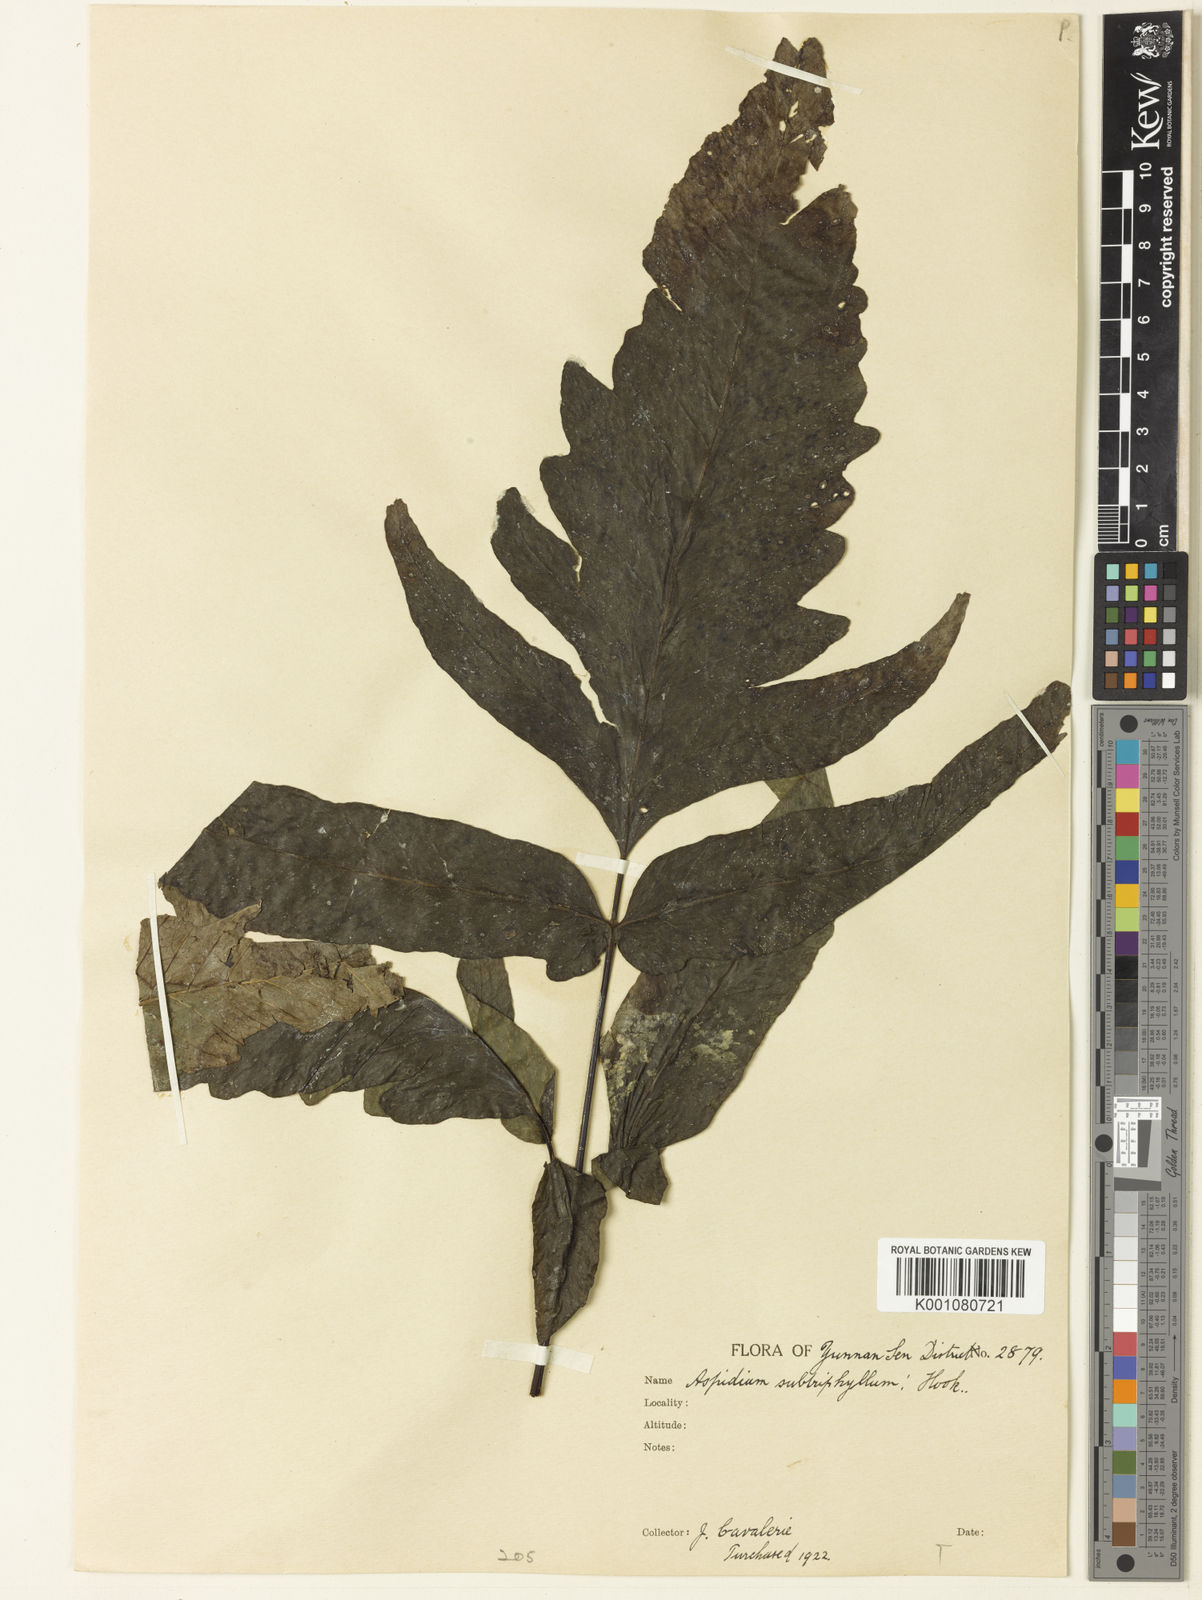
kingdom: Plantae
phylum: Tracheophyta
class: Polypodiopsida
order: Polypodiales
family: Tectariaceae
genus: Tectaria
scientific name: Tectaria simonsii
